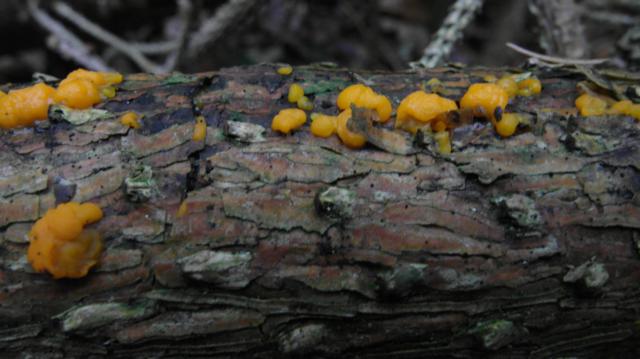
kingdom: Fungi
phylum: Basidiomycota
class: Dacrymycetes
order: Dacrymycetales
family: Dacrymycetaceae
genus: Dacrymyces
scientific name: Dacrymyces stillatus
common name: almindelig tåresvamp
